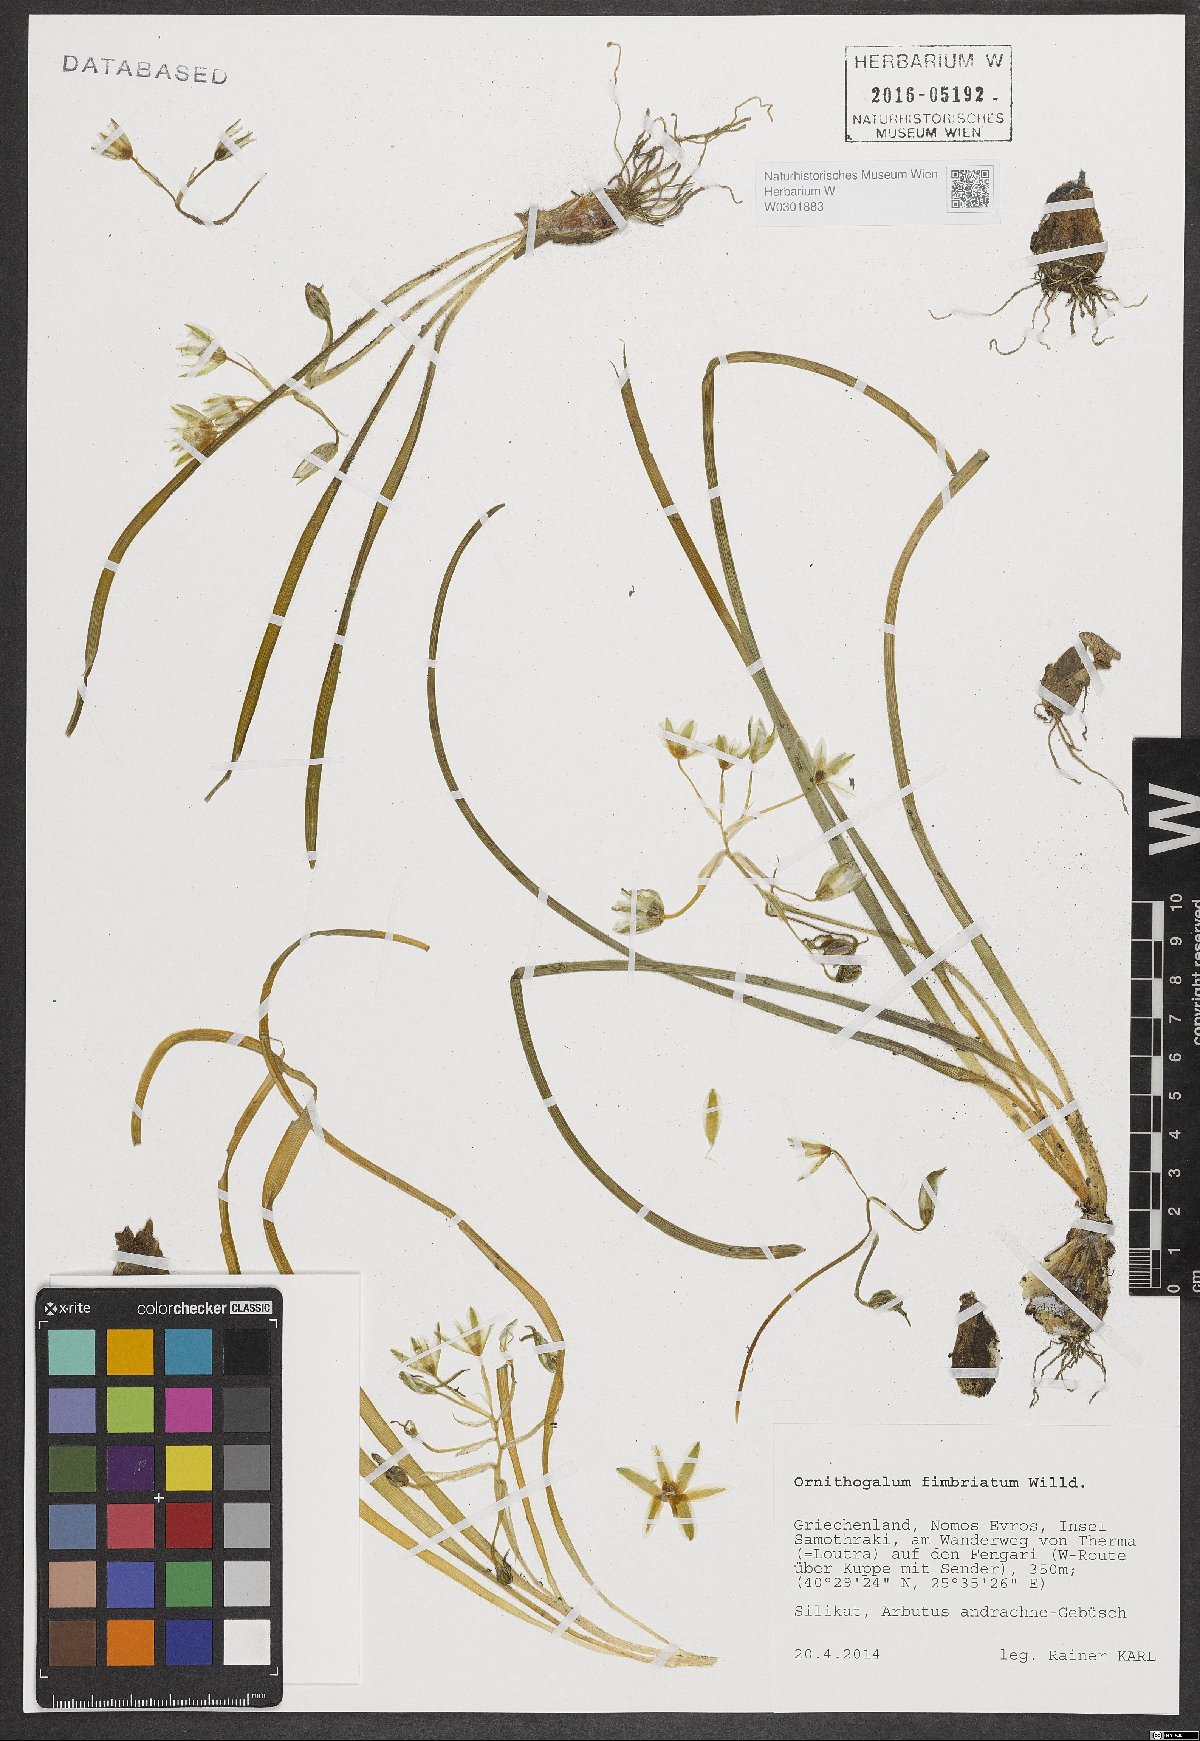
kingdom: Plantae
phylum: Tracheophyta
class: Liliopsida
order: Asparagales
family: Asparagaceae
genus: Ornithogalum
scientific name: Ornithogalum fimbriatum
